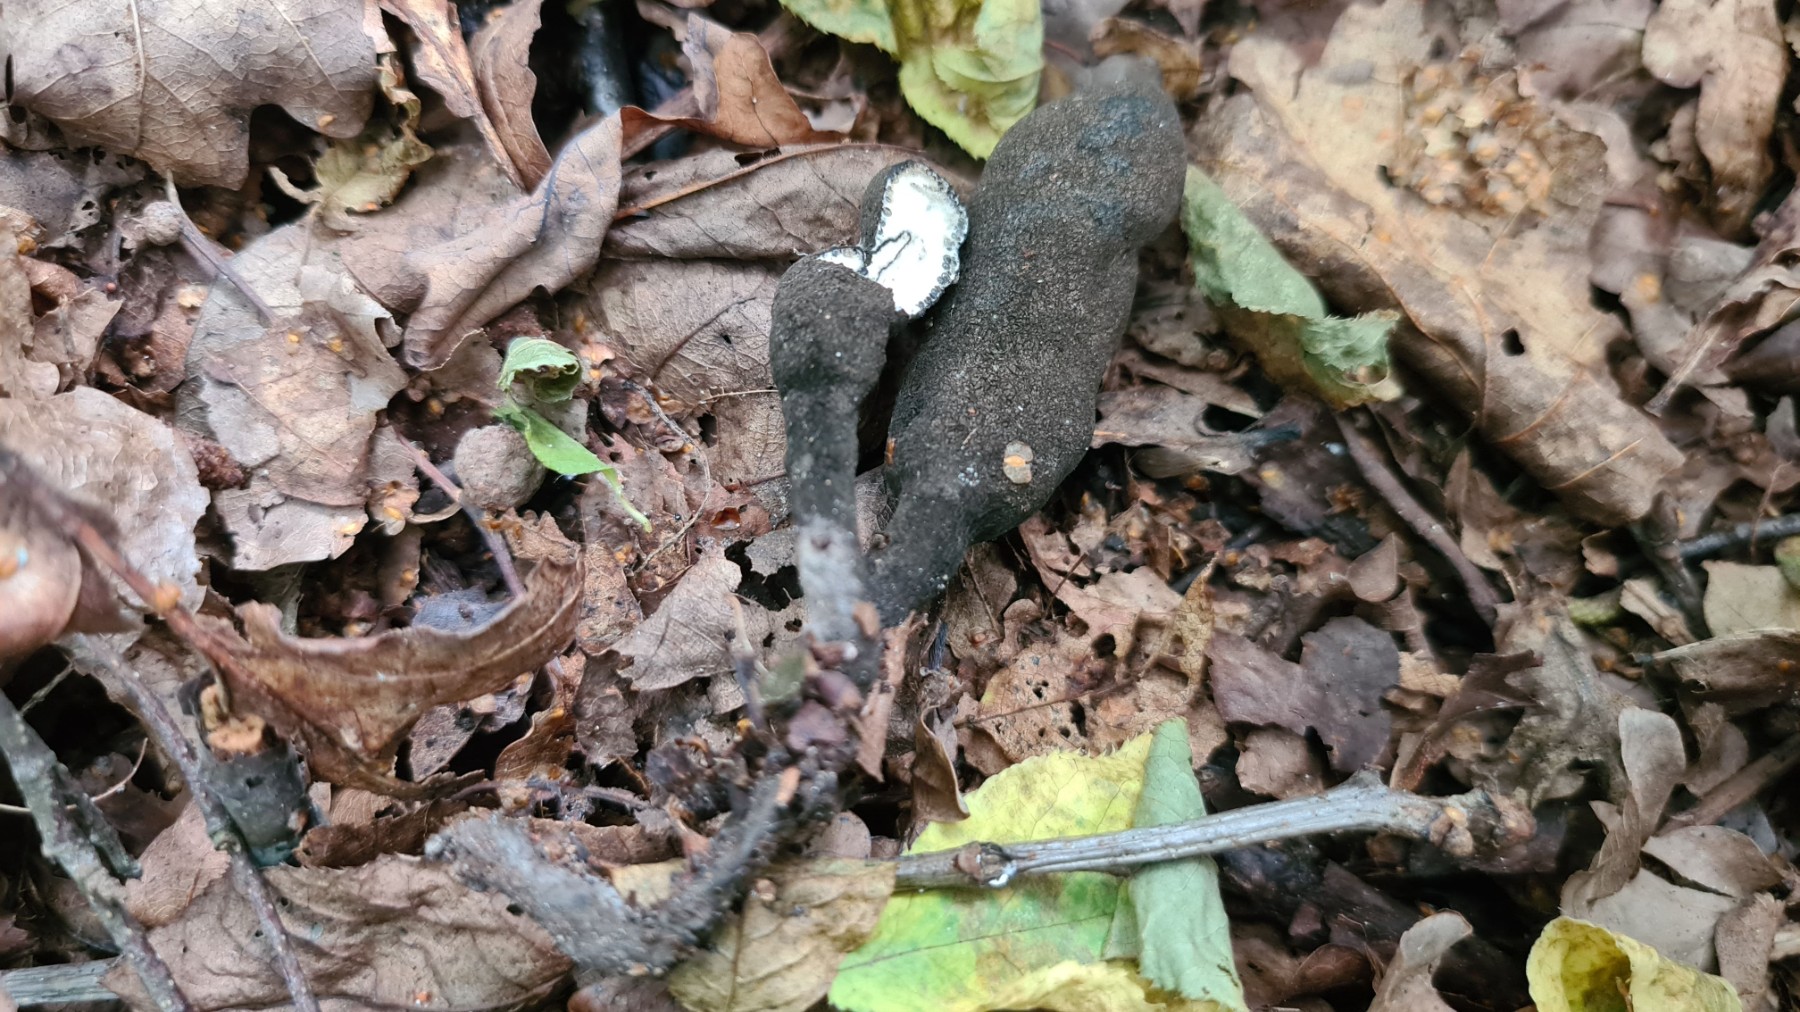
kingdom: Fungi
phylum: Ascomycota
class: Sordariomycetes
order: Xylariales
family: Xylariaceae
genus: Xylaria
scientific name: Xylaria polymorpha
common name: kølle-stødsvamp
